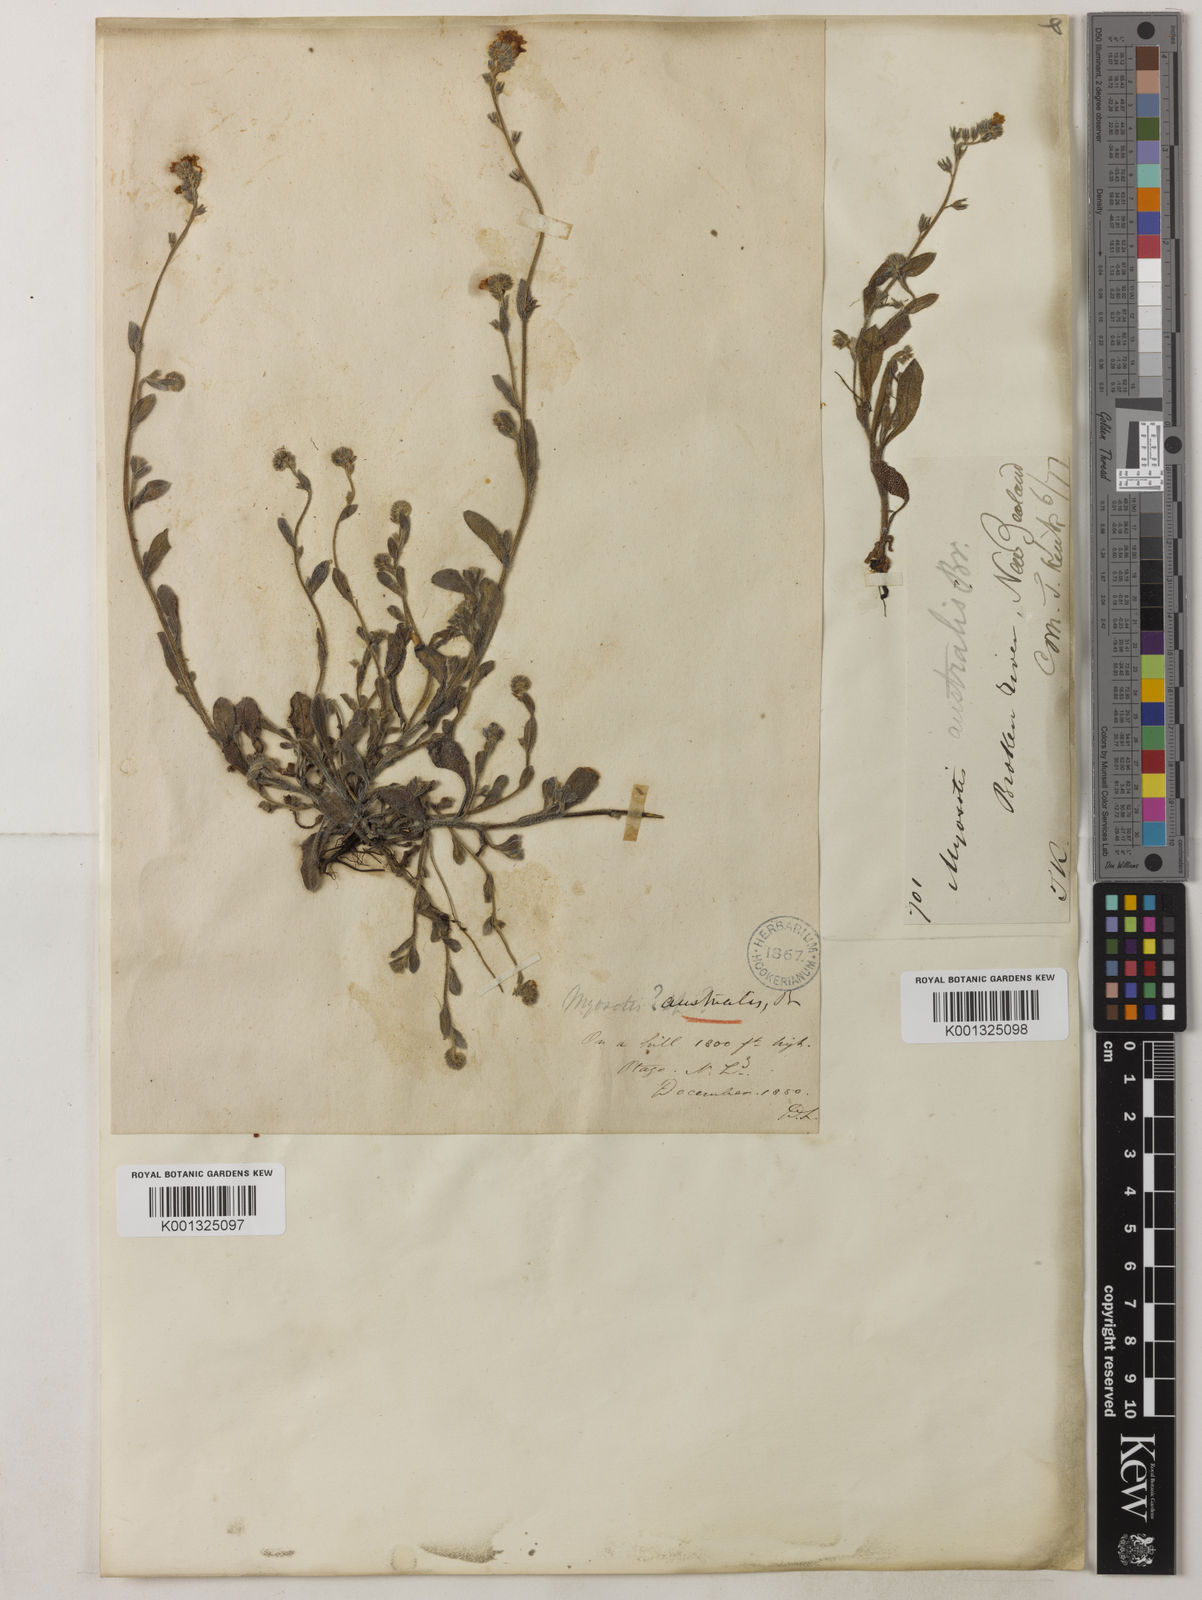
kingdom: Plantae
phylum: Tracheophyta
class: Magnoliopsida
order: Boraginales
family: Boraginaceae
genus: Myosotis
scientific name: Myosotis australis
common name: Australian forget-me-not
